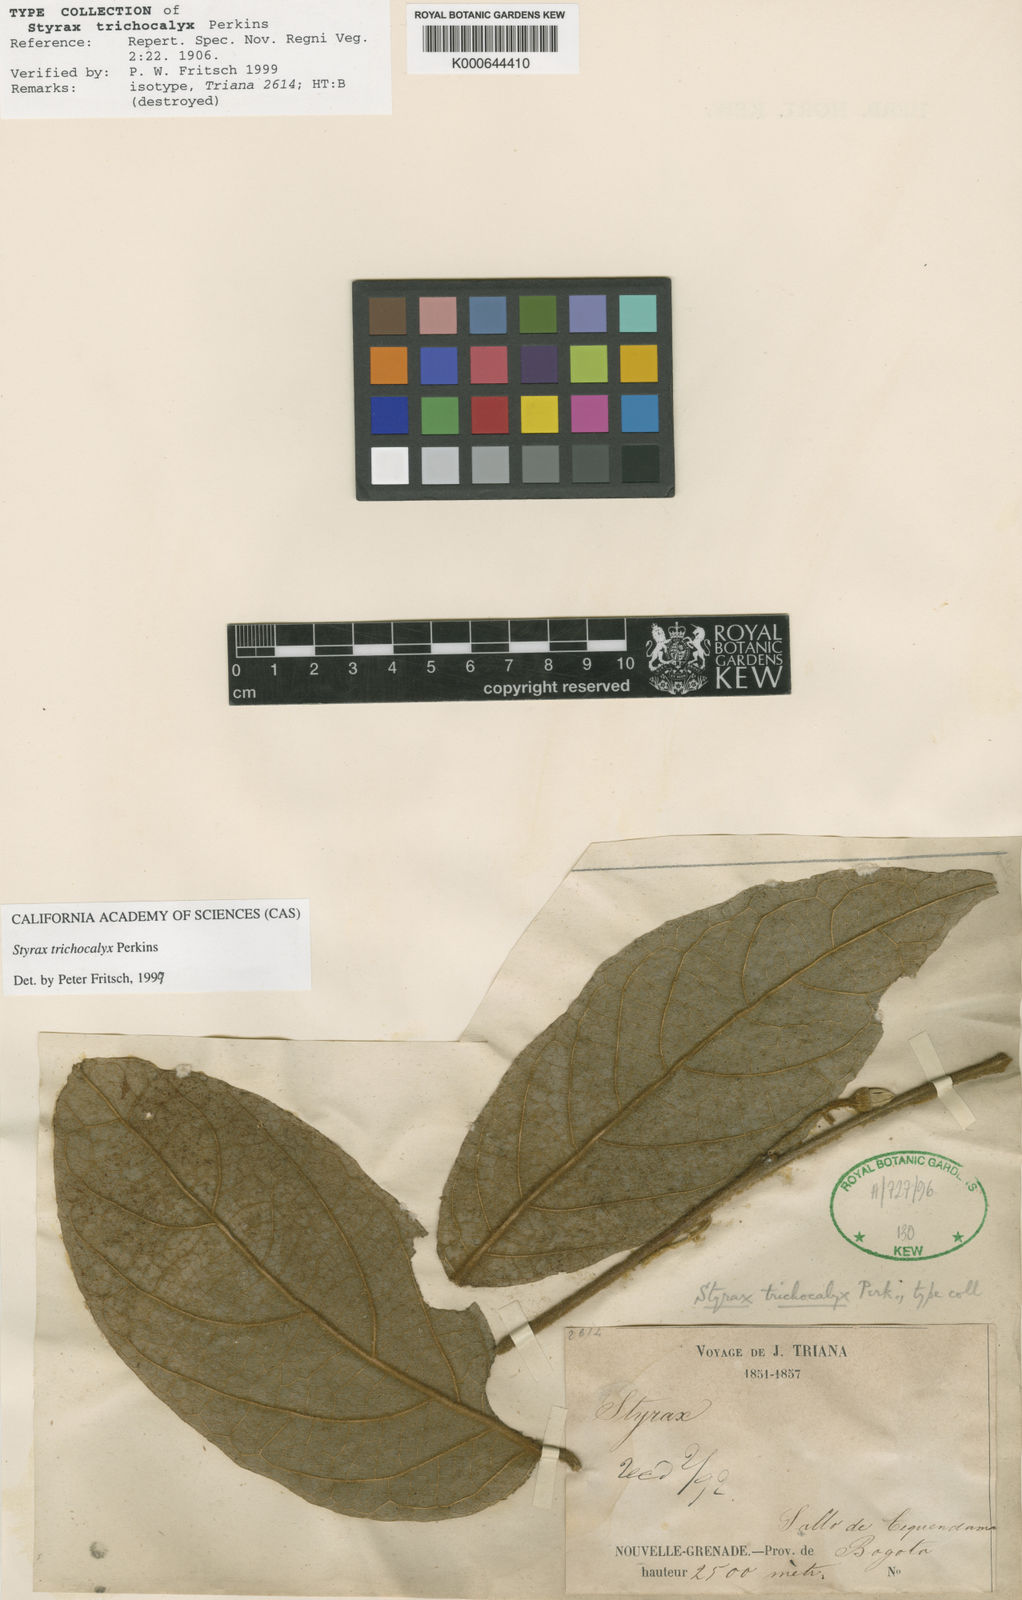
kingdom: Plantae
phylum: Tracheophyta
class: Magnoliopsida
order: Ericales
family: Styracaceae
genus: Styrax
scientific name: Styrax trichocalyx
